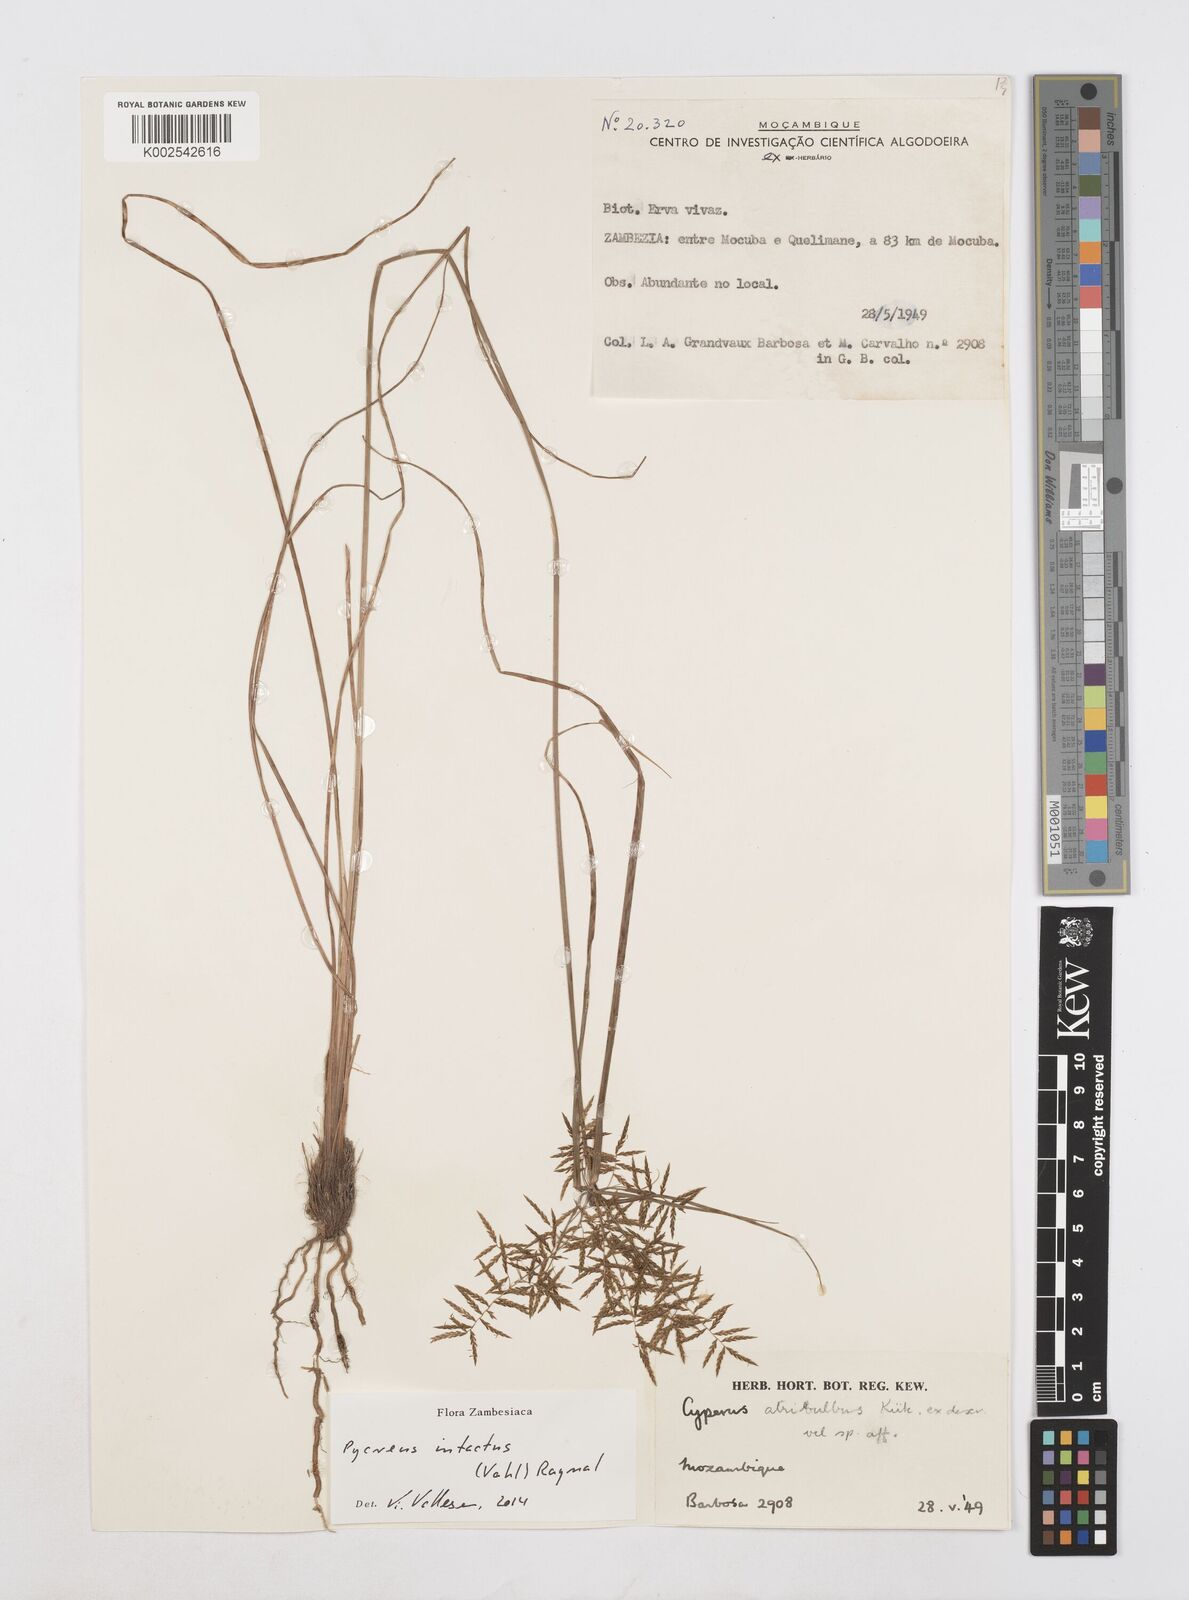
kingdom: Plantae
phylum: Tracheophyta
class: Liliopsida
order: Poales
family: Cyperaceae
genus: Cyperus
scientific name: Cyperus intactus
